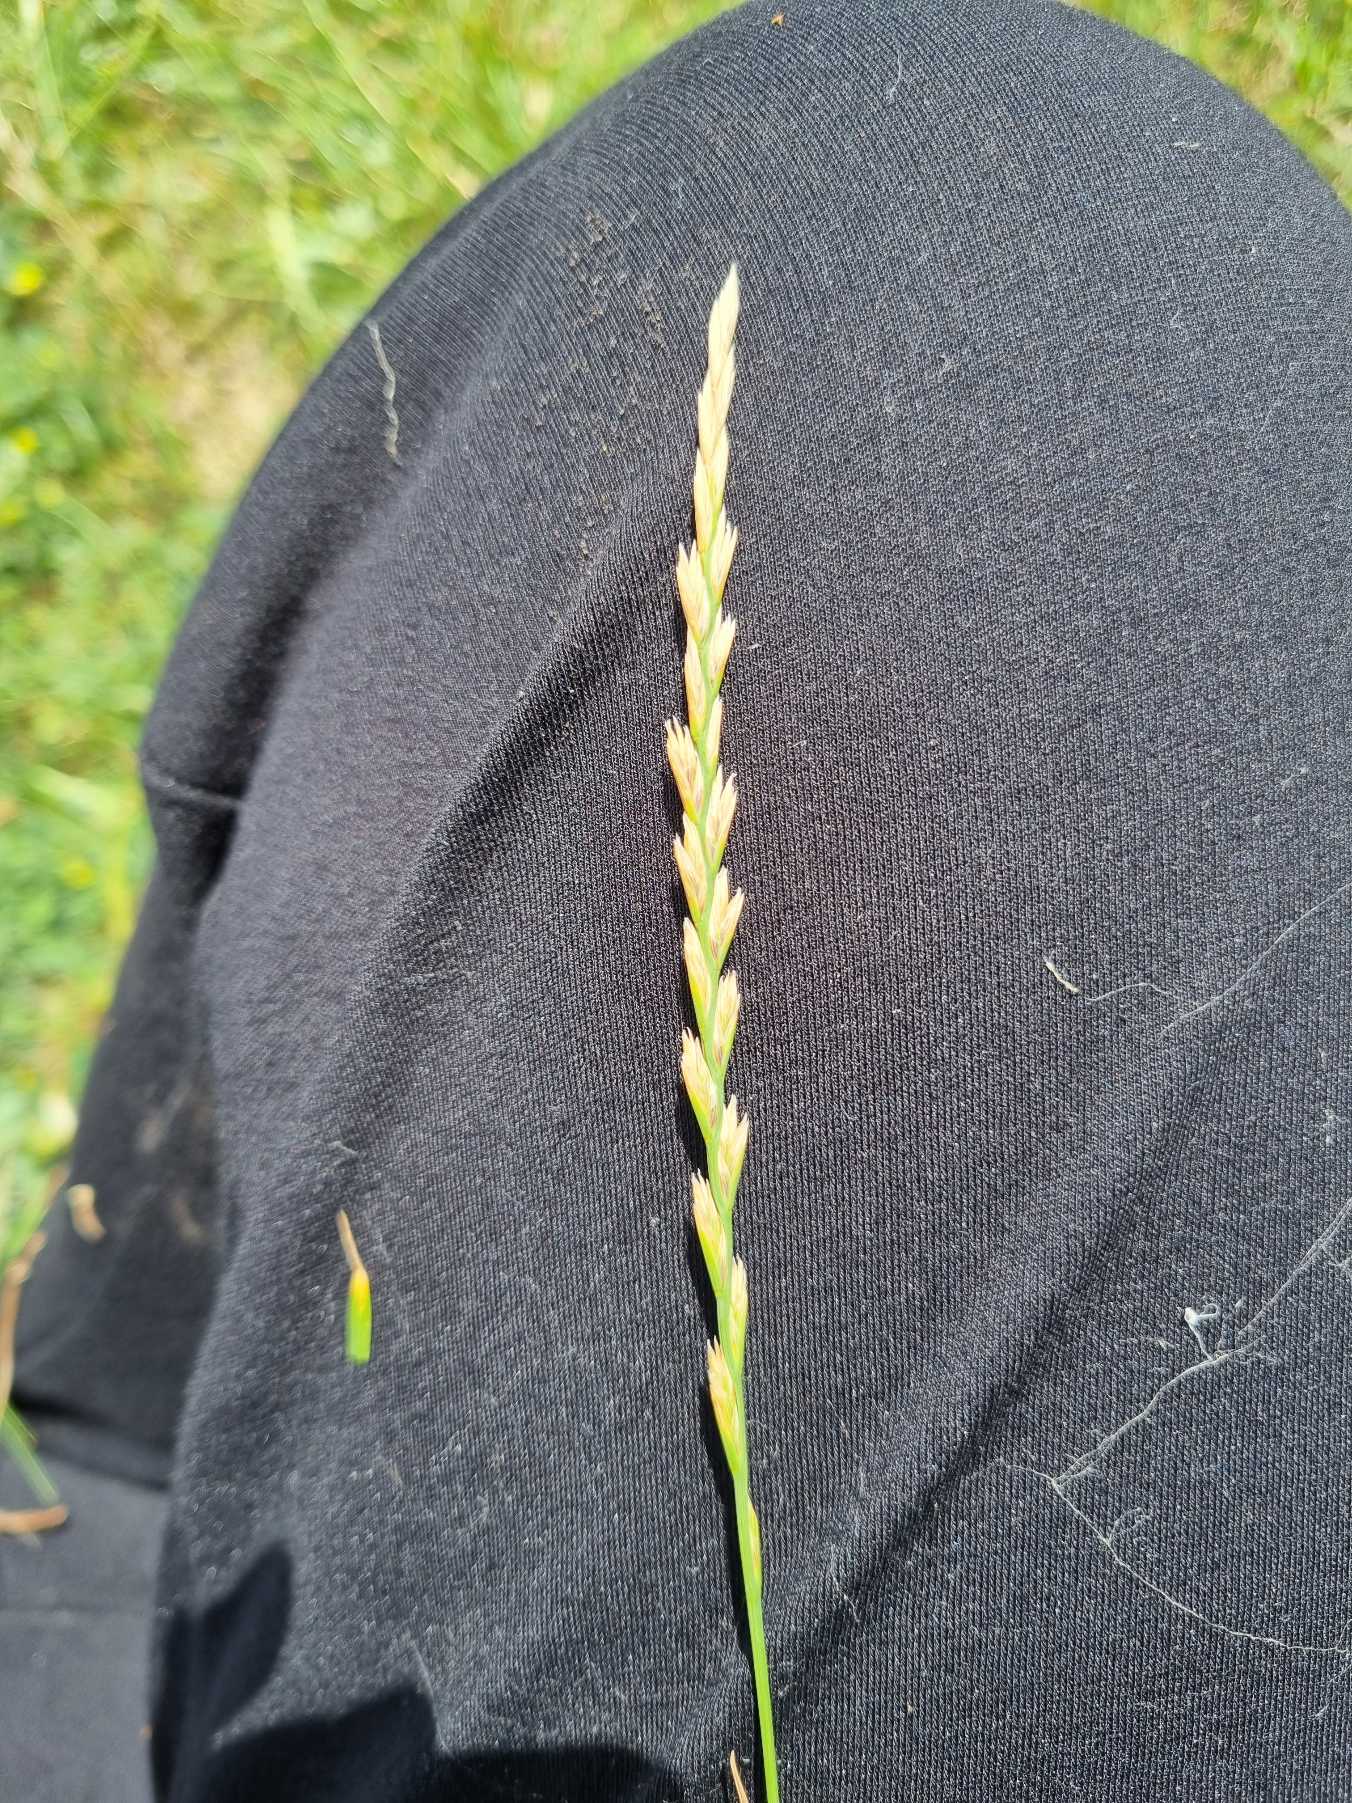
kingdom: Plantae
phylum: Tracheophyta
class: Liliopsida
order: Poales
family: Poaceae
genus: Lolium
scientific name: Lolium perenne
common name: Almindelig rajgræs
